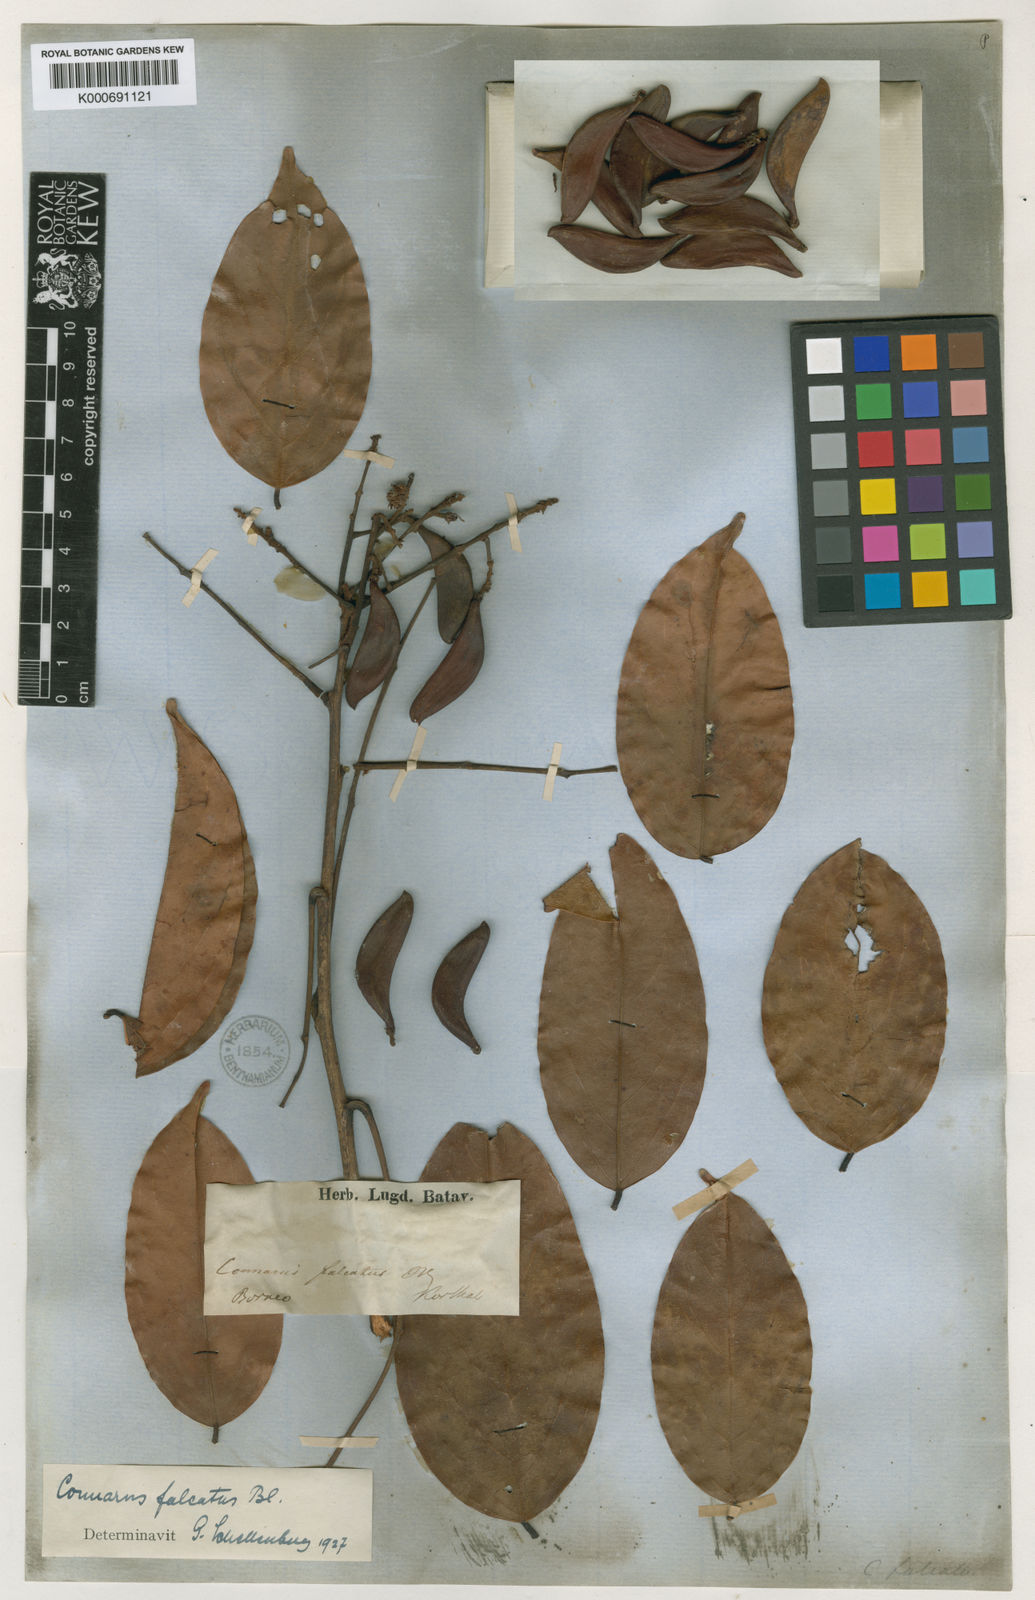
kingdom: Plantae
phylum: Tracheophyta
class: Magnoliopsida
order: Oxalidales
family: Connaraceae
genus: Connarus
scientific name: Connarus semidecandrus
